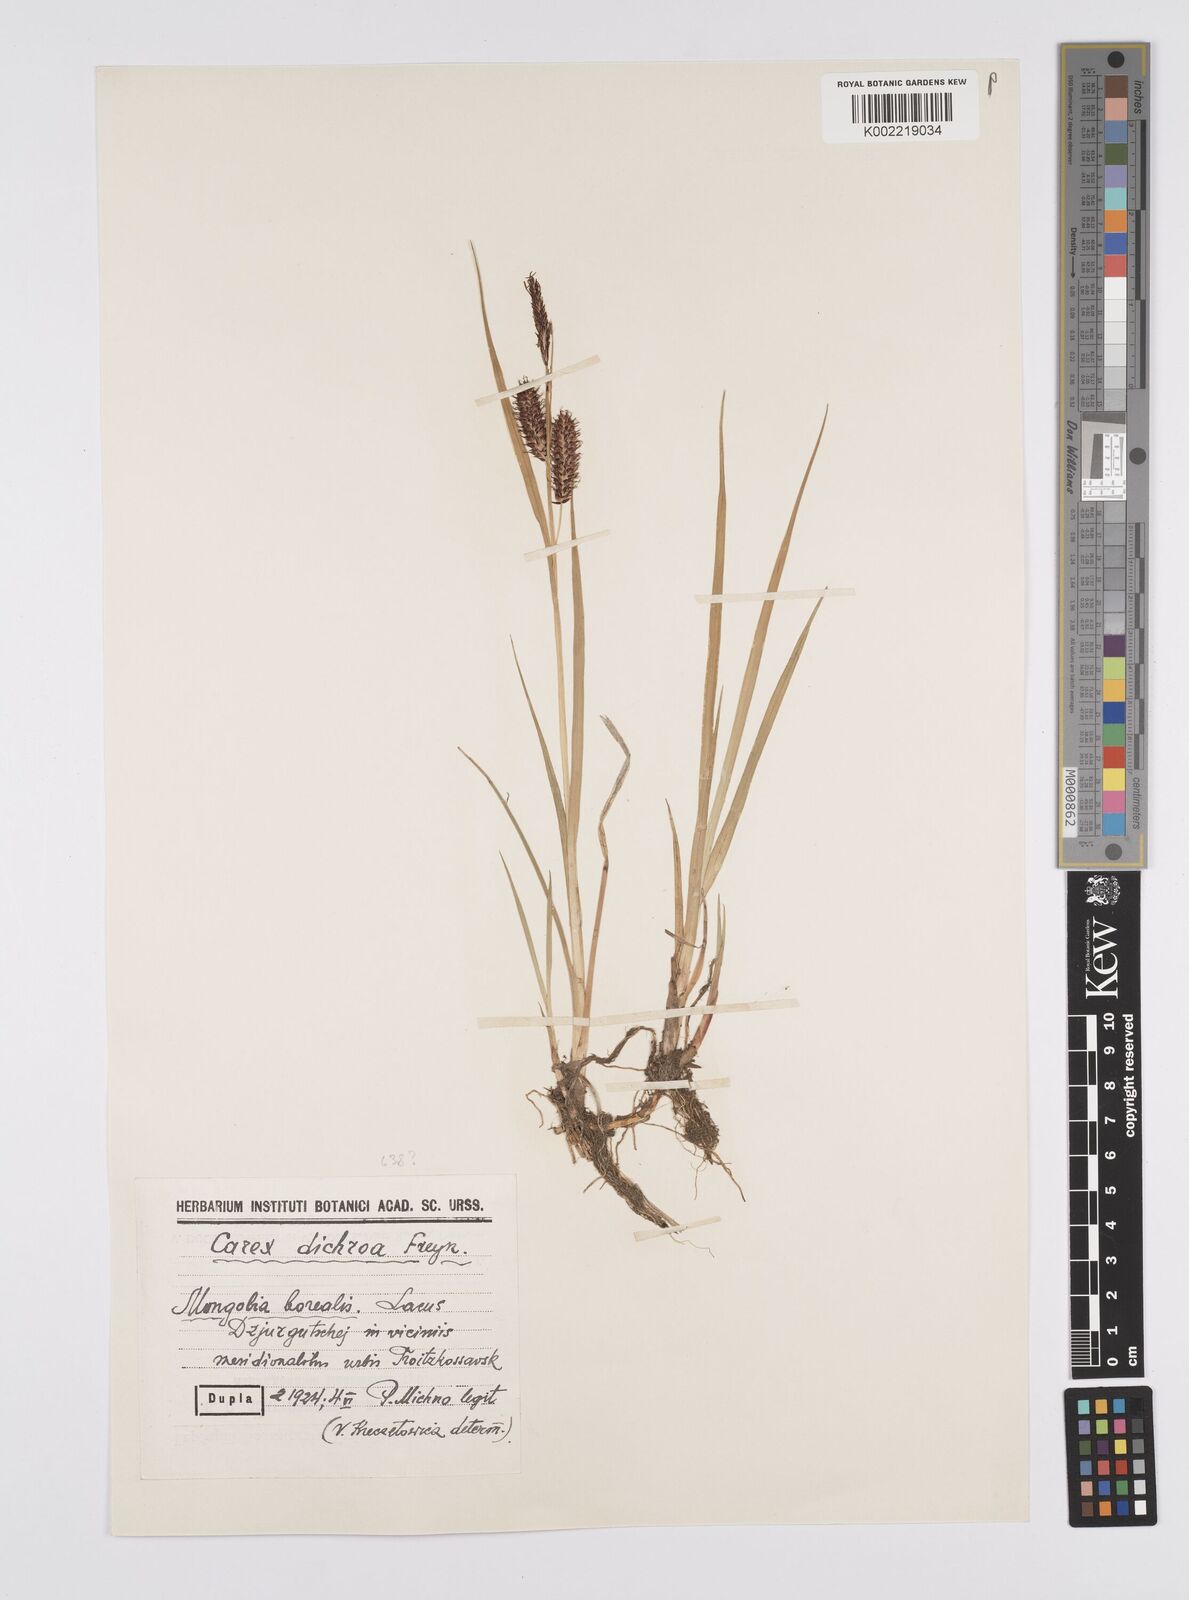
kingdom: Plantae
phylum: Tracheophyta
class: Liliopsida
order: Poales
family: Cyperaceae
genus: Carex
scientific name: Carex
